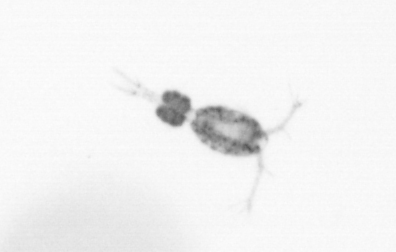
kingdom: Animalia
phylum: Arthropoda
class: Copepoda
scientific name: Copepoda
